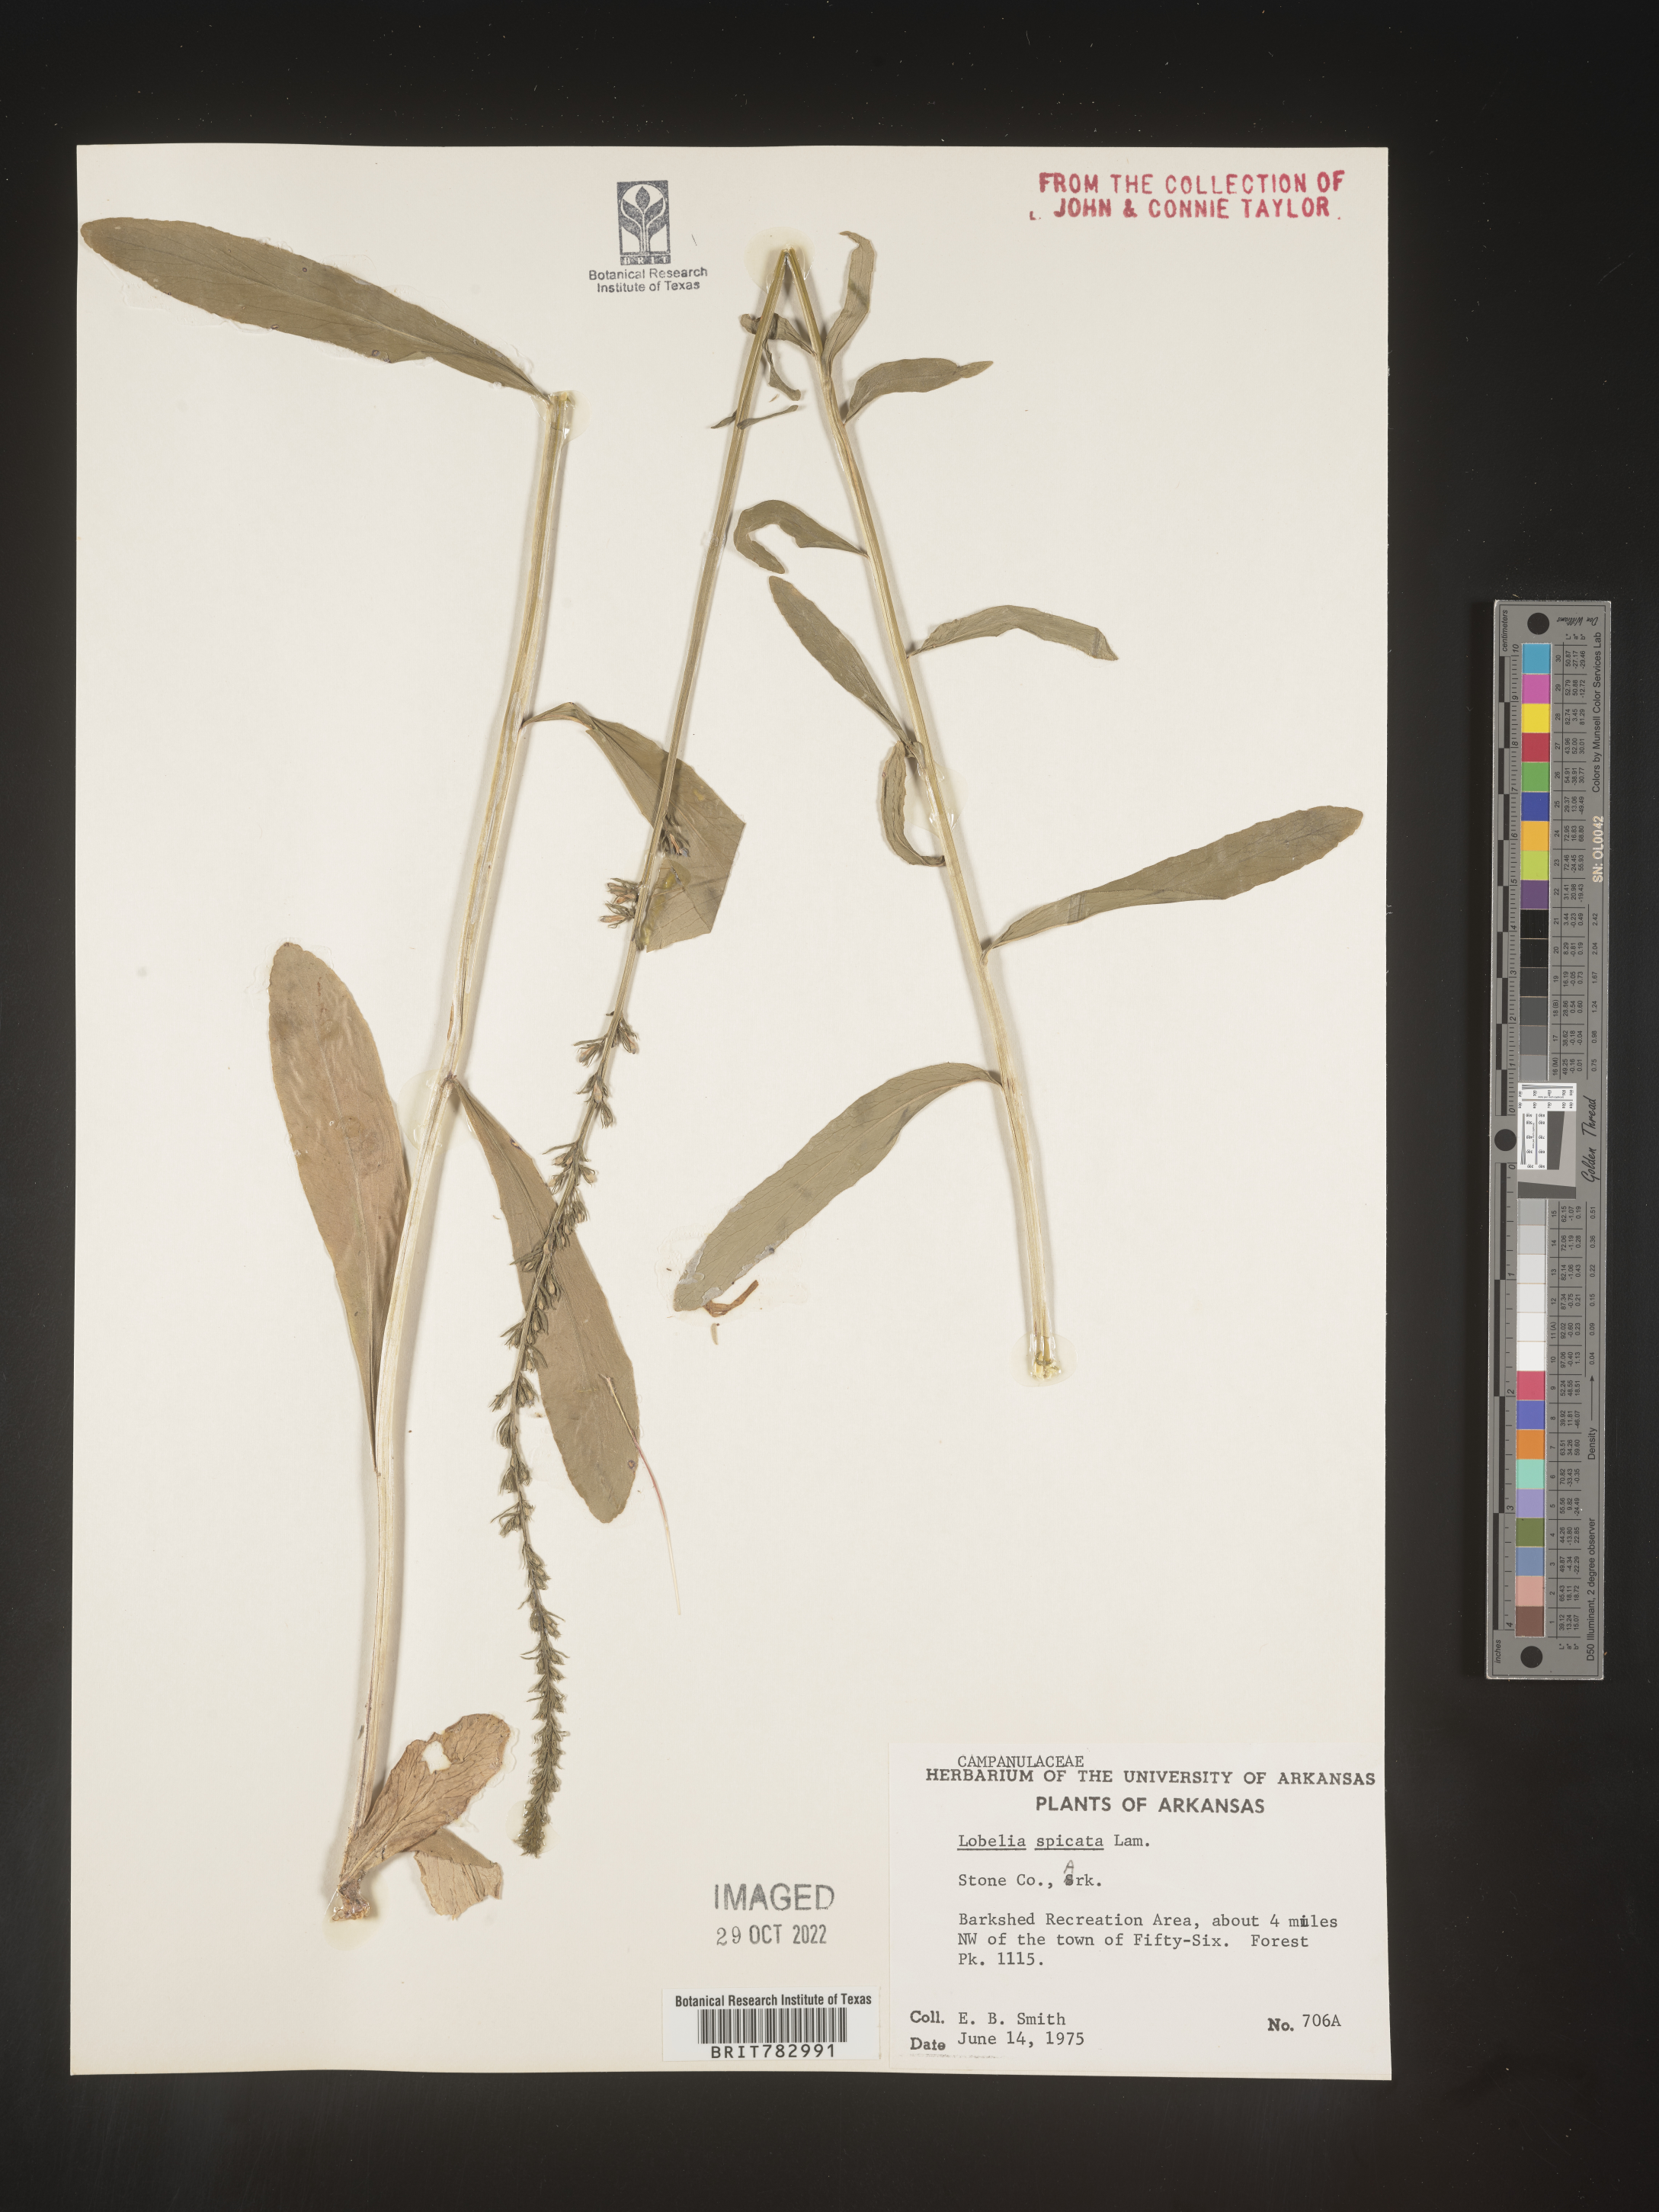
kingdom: Plantae
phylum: Tracheophyta
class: Magnoliopsida
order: Asterales
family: Campanulaceae
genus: Lobelia
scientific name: Lobelia spicata
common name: Pale-spike lobelia
